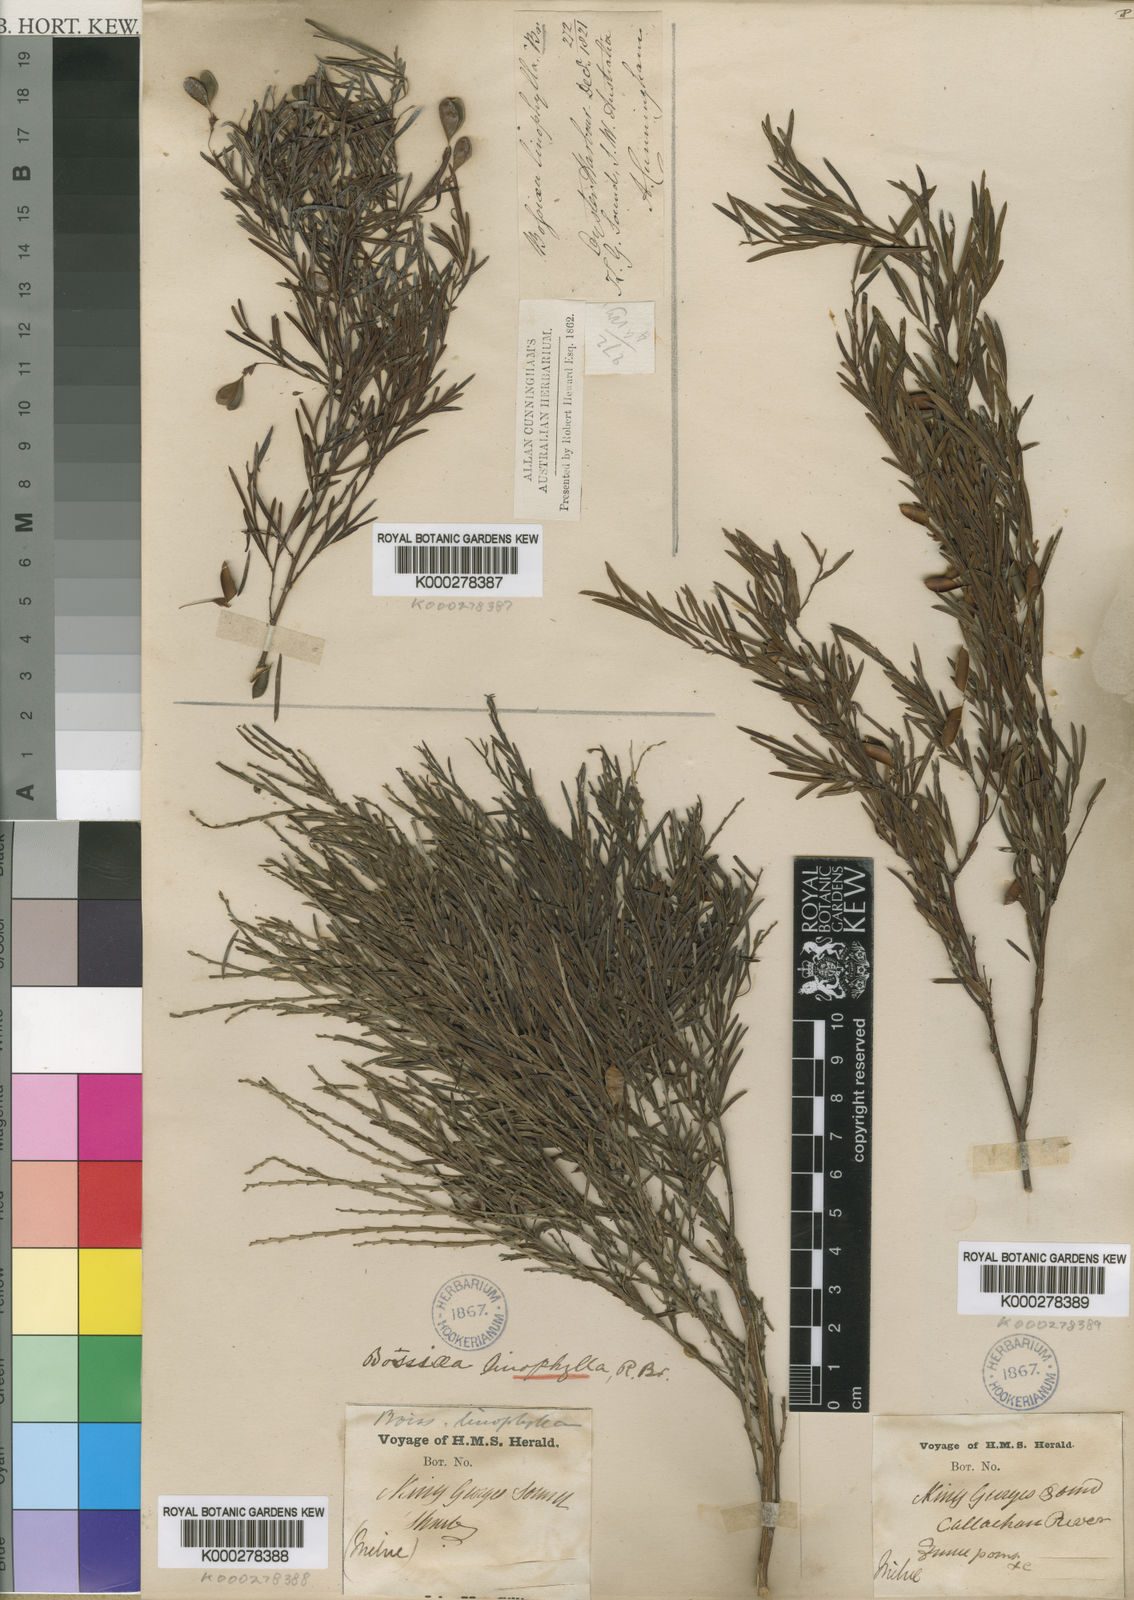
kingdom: Plantae
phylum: Tracheophyta
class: Magnoliopsida
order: Fabales
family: Fabaceae
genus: Bossiaea
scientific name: Bossiaea linophylla
